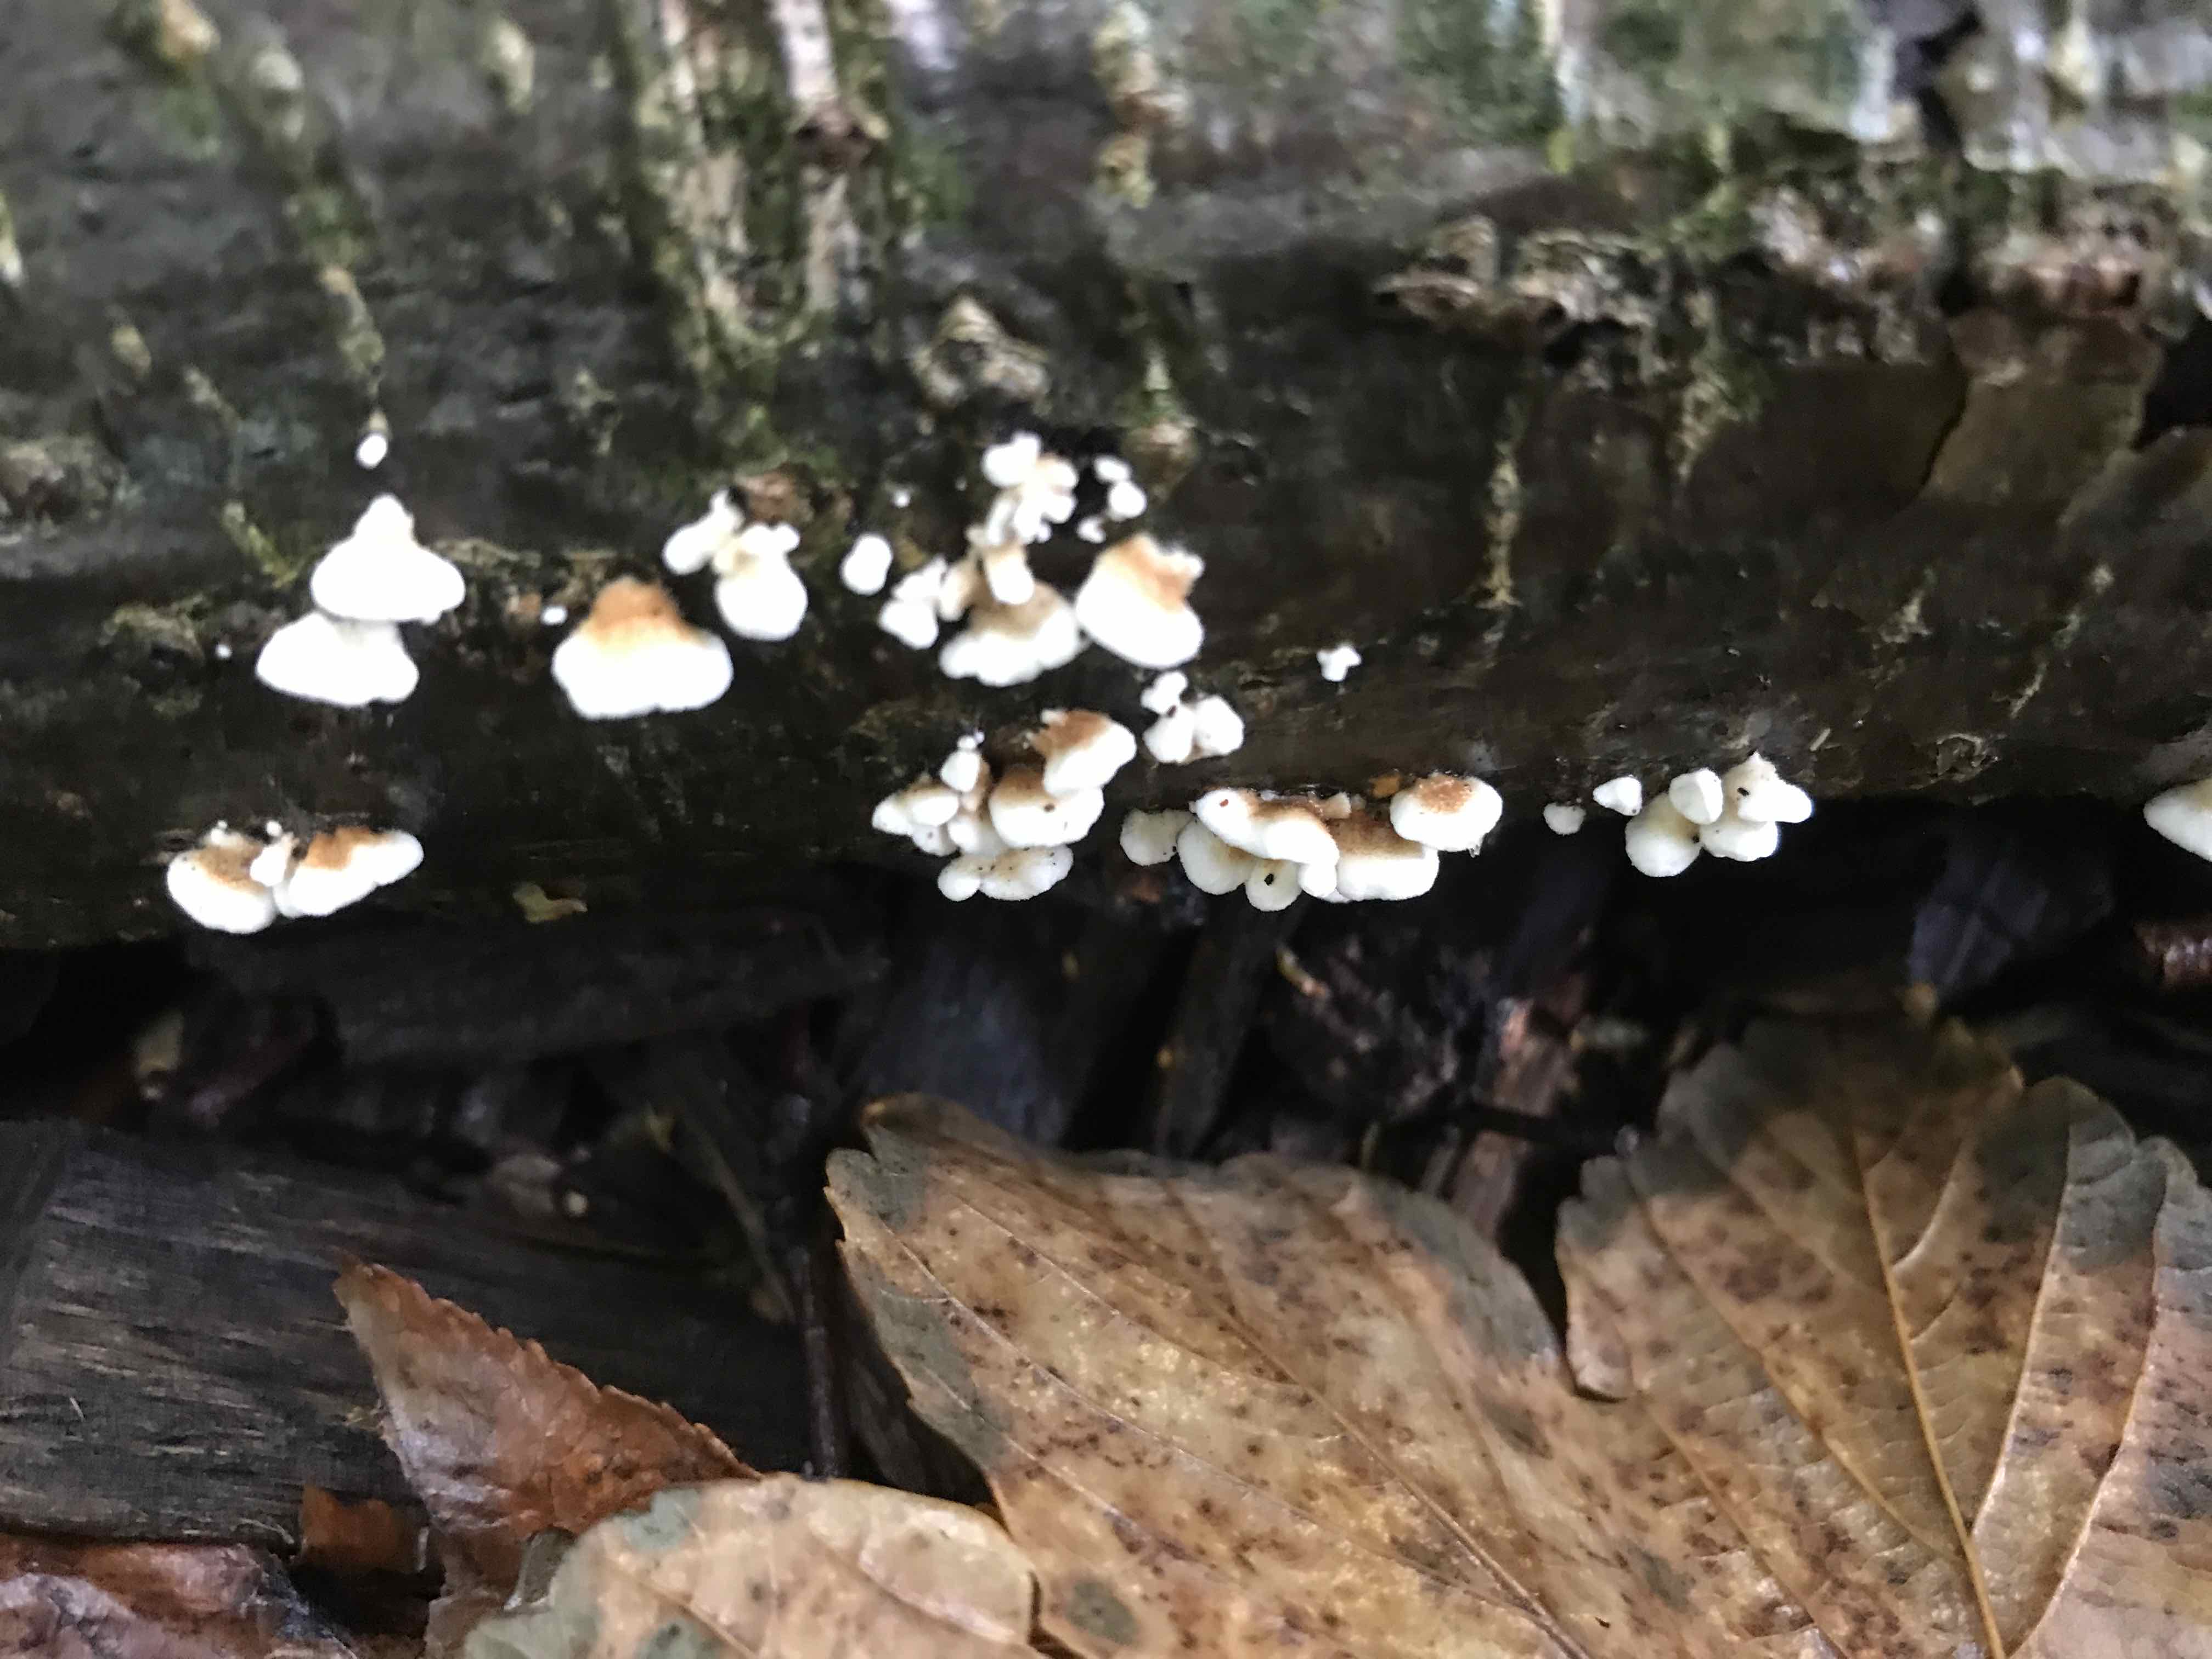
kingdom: Fungi
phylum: Basidiomycota
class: Agaricomycetes
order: Amylocorticiales
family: Amylocorticiaceae
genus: Plicaturopsis
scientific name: Plicaturopsis crispa
